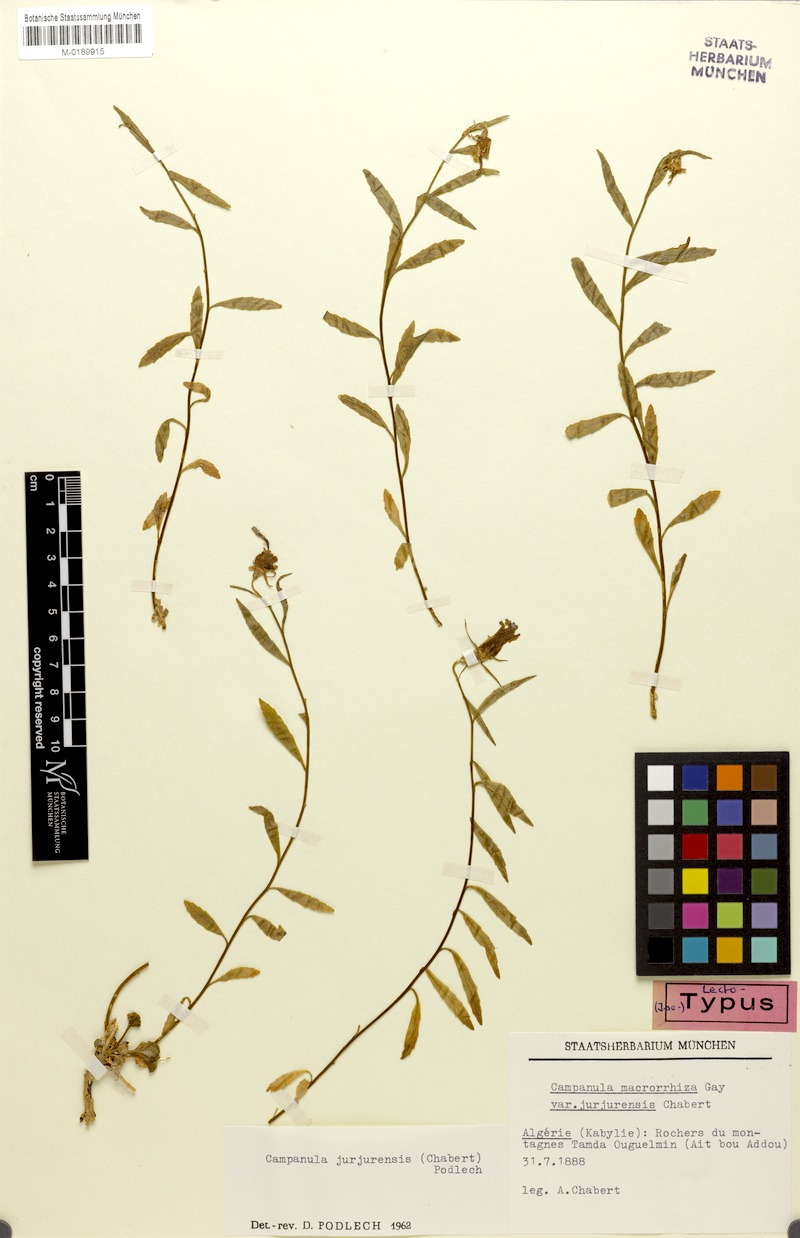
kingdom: Plantae
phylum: Tracheophyta
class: Magnoliopsida
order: Asterales
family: Campanulaceae
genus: Campanula
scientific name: Campanula jurjurensis
